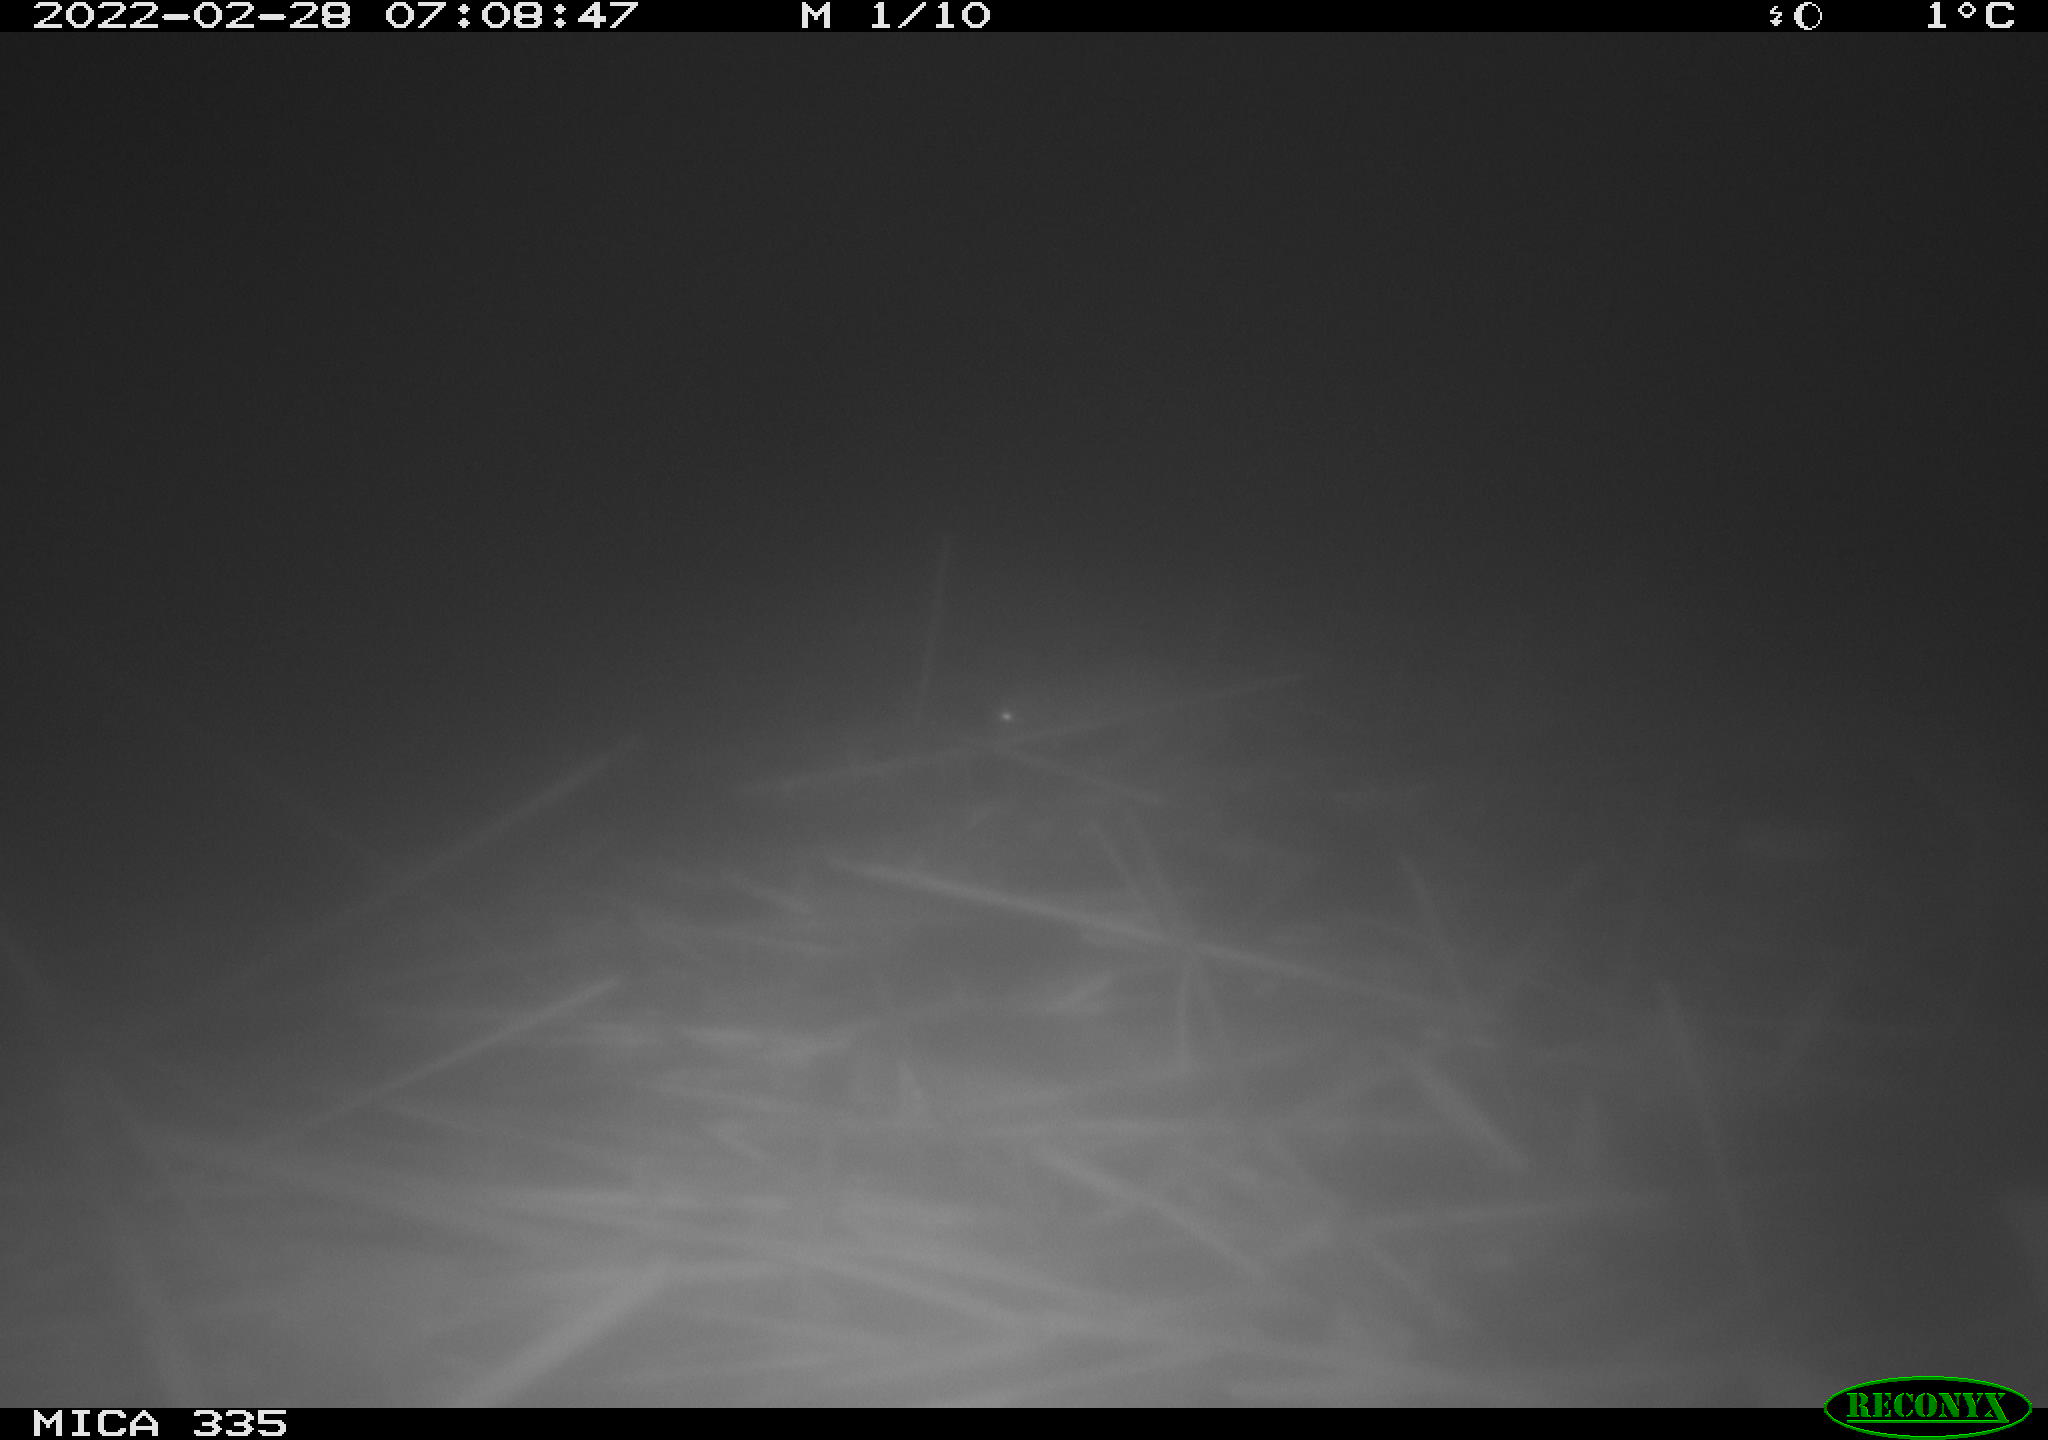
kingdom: Animalia
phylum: Chordata
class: Mammalia
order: Rodentia
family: Muridae
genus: Rattus
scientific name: Rattus norvegicus
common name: Brown rat
